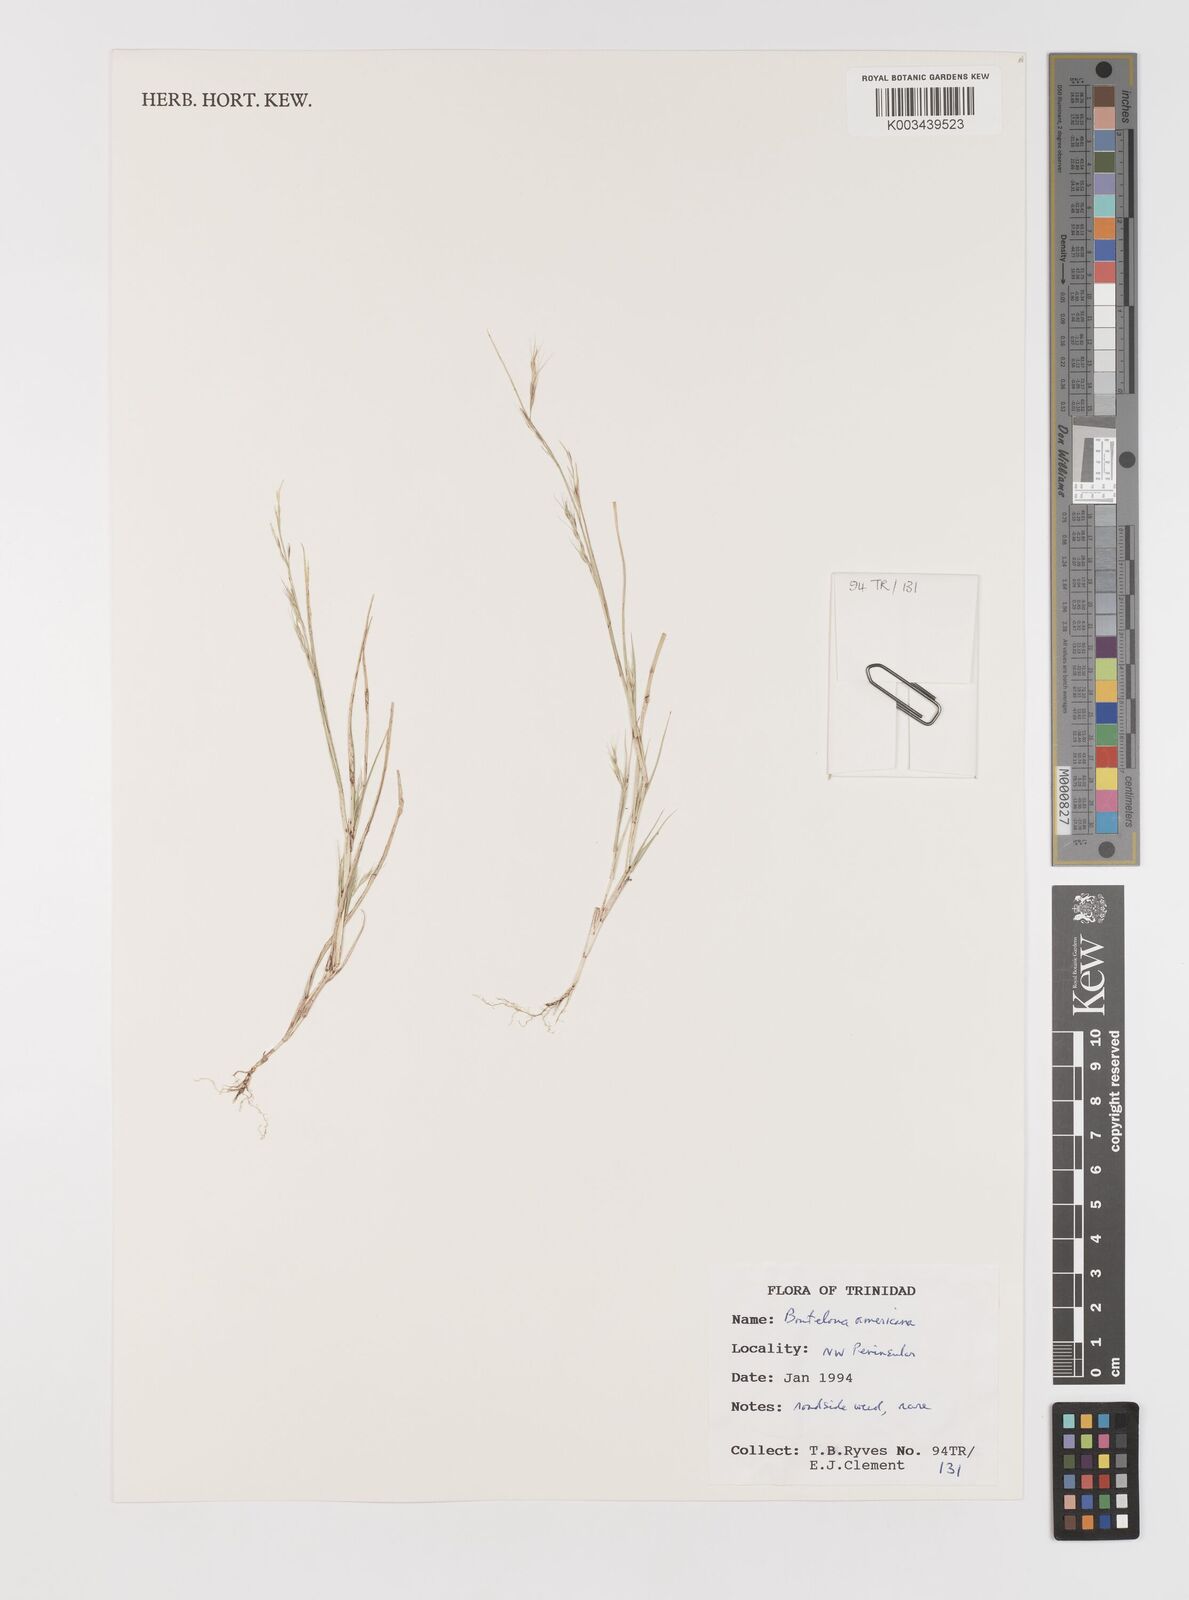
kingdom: Plantae
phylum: Tracheophyta
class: Liliopsida
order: Poales
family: Poaceae
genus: Bouteloua
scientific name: Bouteloua americana
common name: Mule grass
